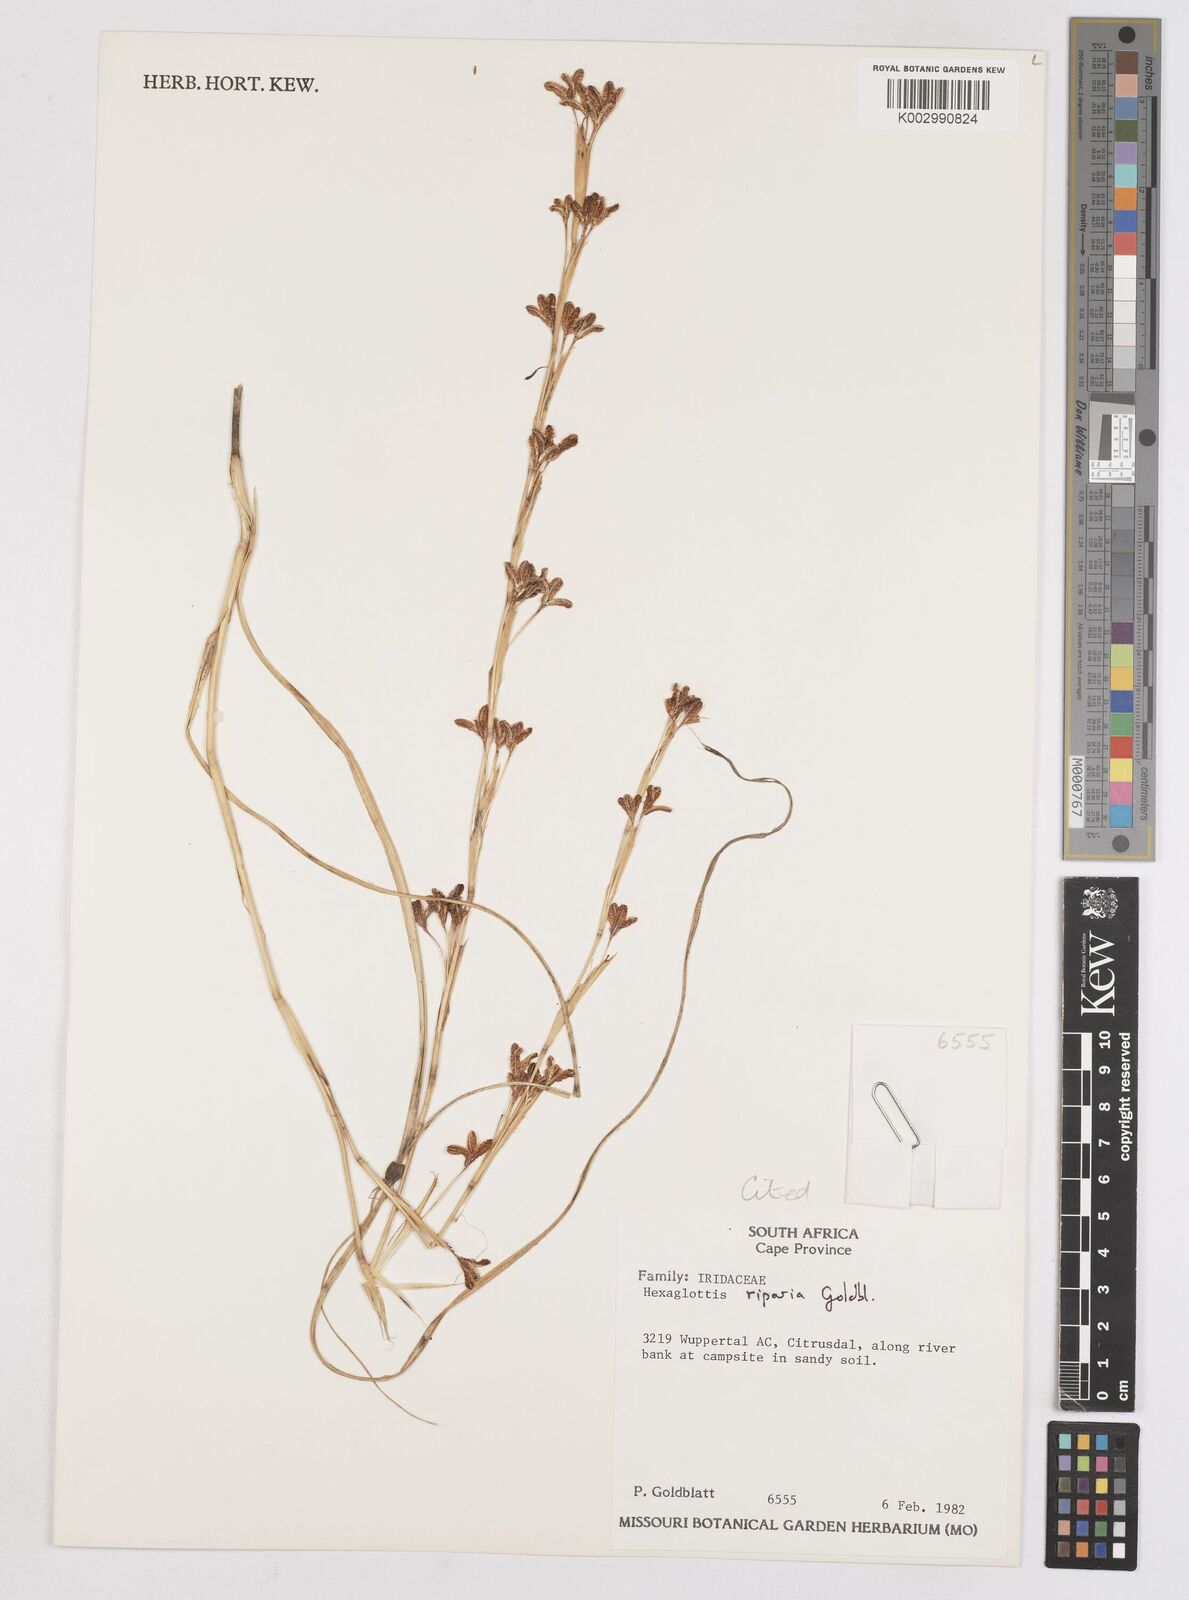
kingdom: Plantae
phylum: Tracheophyta
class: Liliopsida
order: Asparagales
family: Iridaceae
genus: Moraea
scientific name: Moraea riparia
